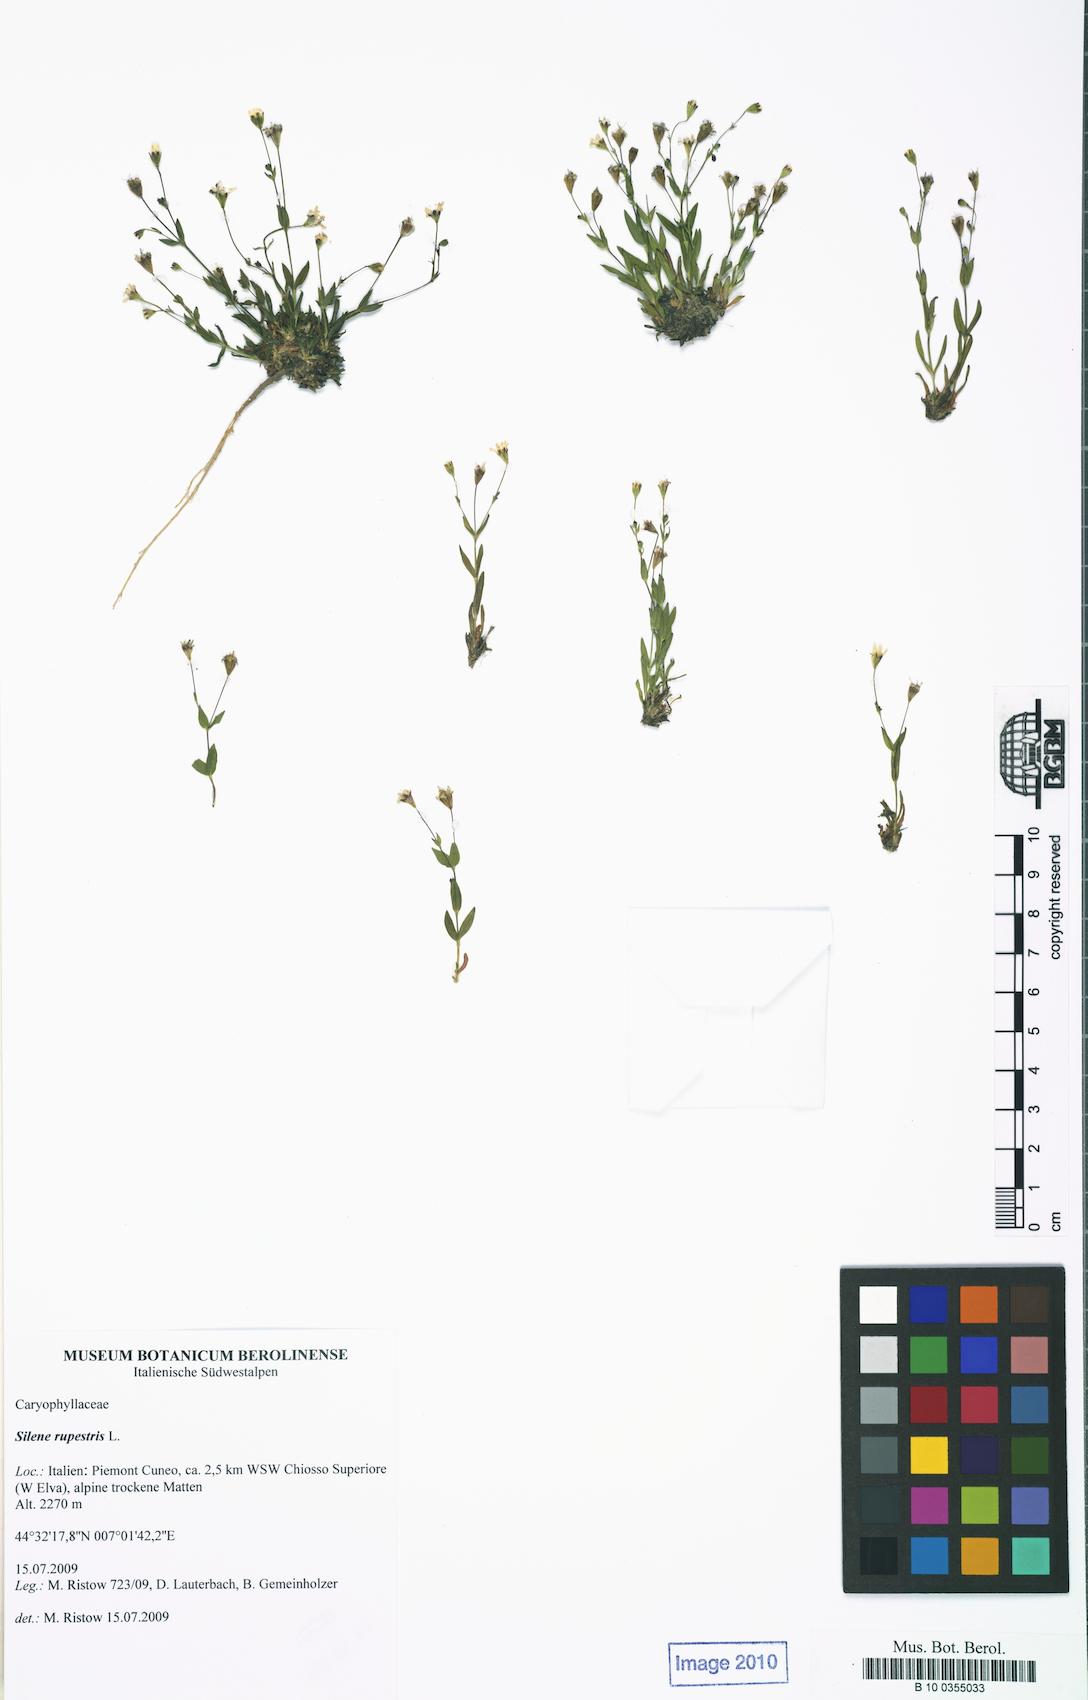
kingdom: Plantae
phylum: Tracheophyta
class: Magnoliopsida
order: Caryophyllales
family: Caryophyllaceae
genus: Atocion
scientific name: Atocion rupestre
